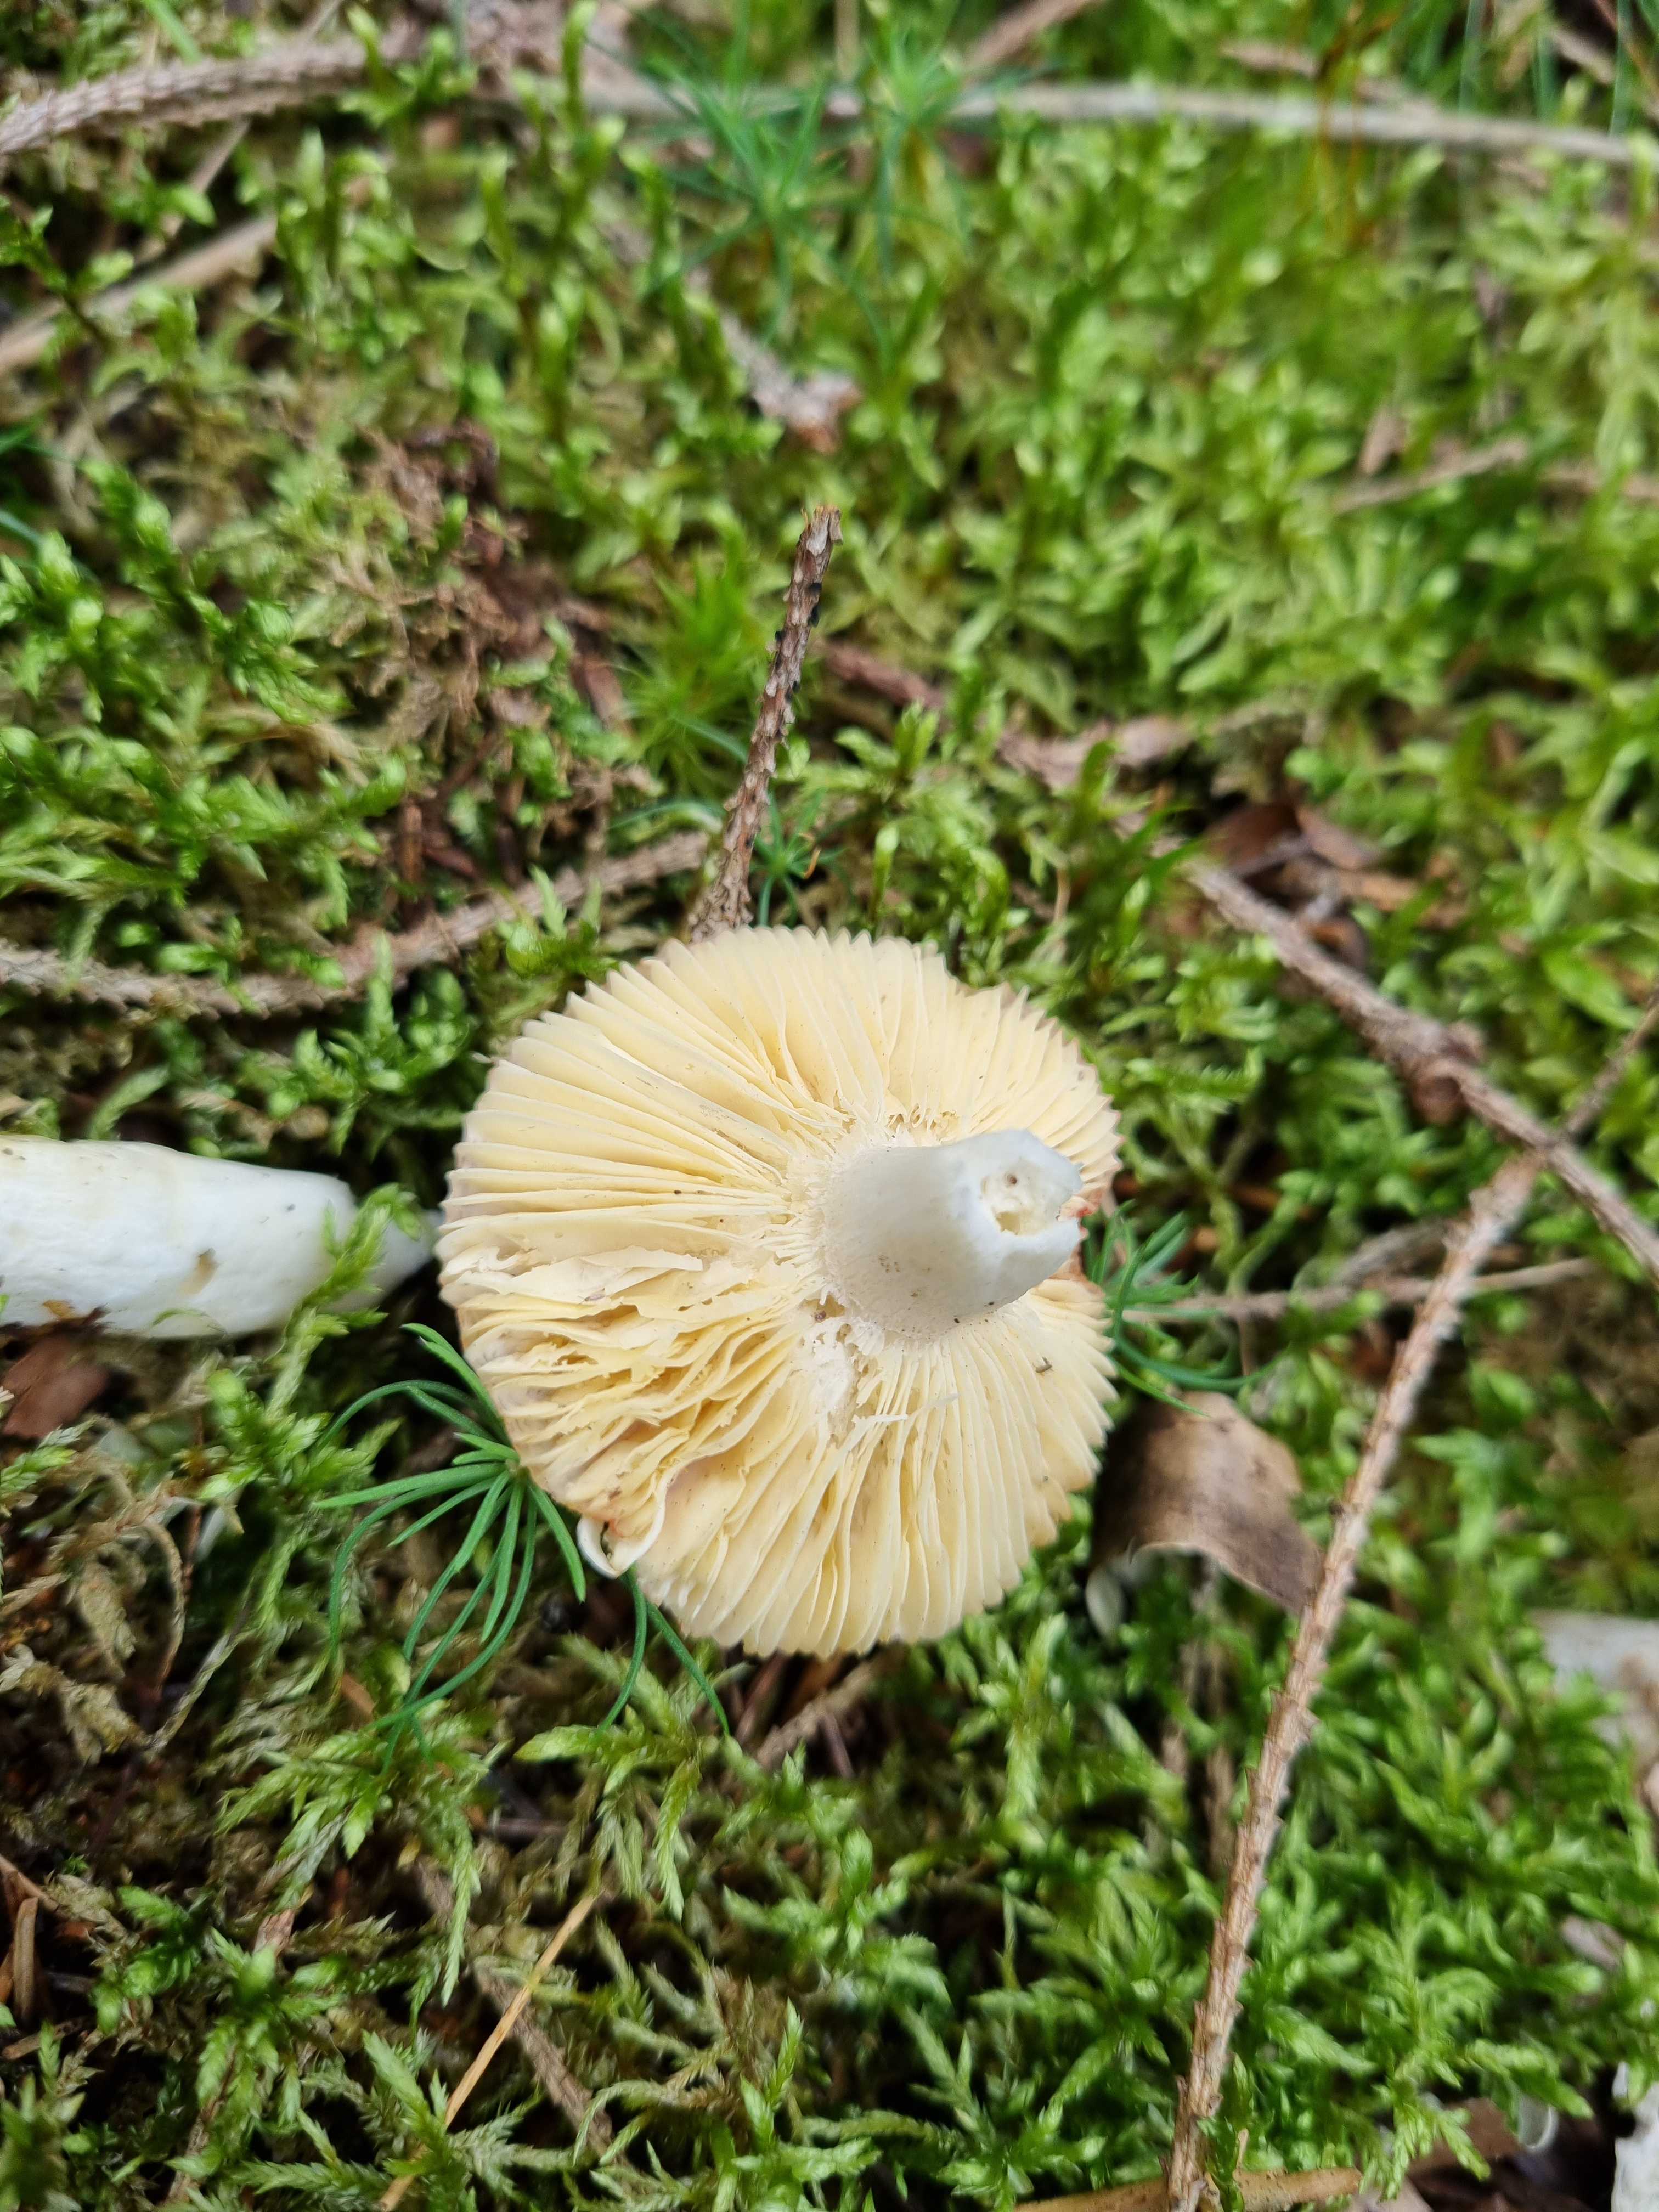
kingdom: Fungi
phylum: Basidiomycota
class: Agaricomycetes
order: Russulales
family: Russulaceae
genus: Russula
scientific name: Russula
